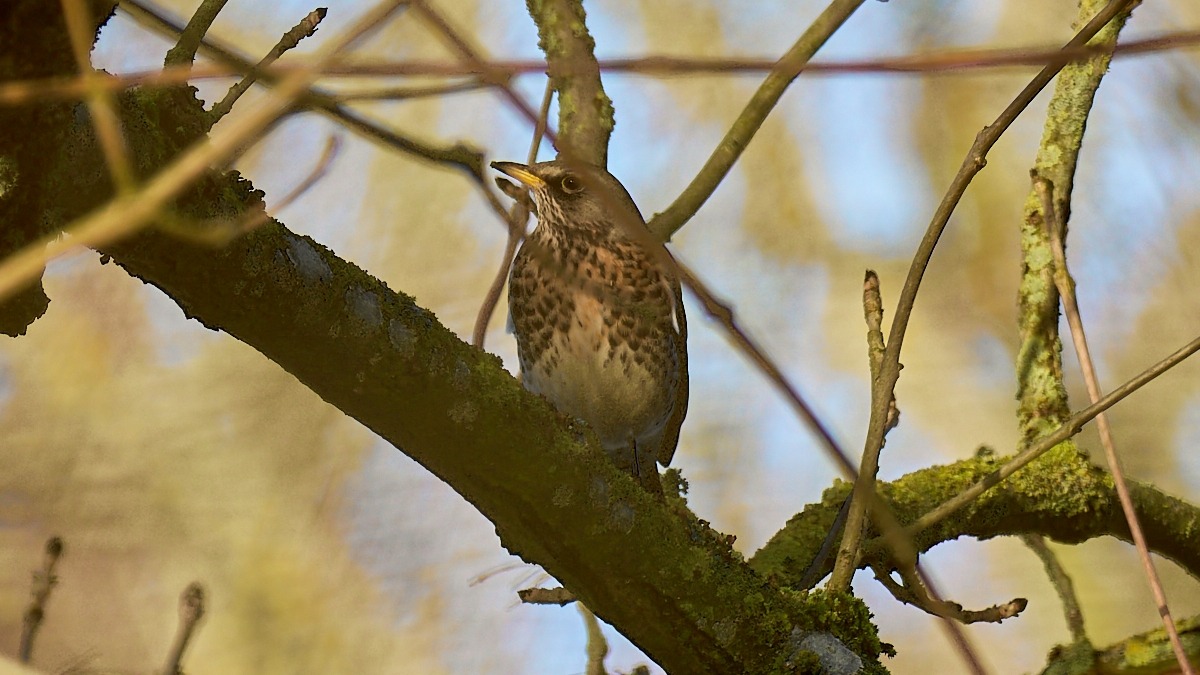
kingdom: Animalia
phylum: Chordata
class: Aves
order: Passeriformes
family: Turdidae
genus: Turdus
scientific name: Turdus pilaris
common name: Sjagger
